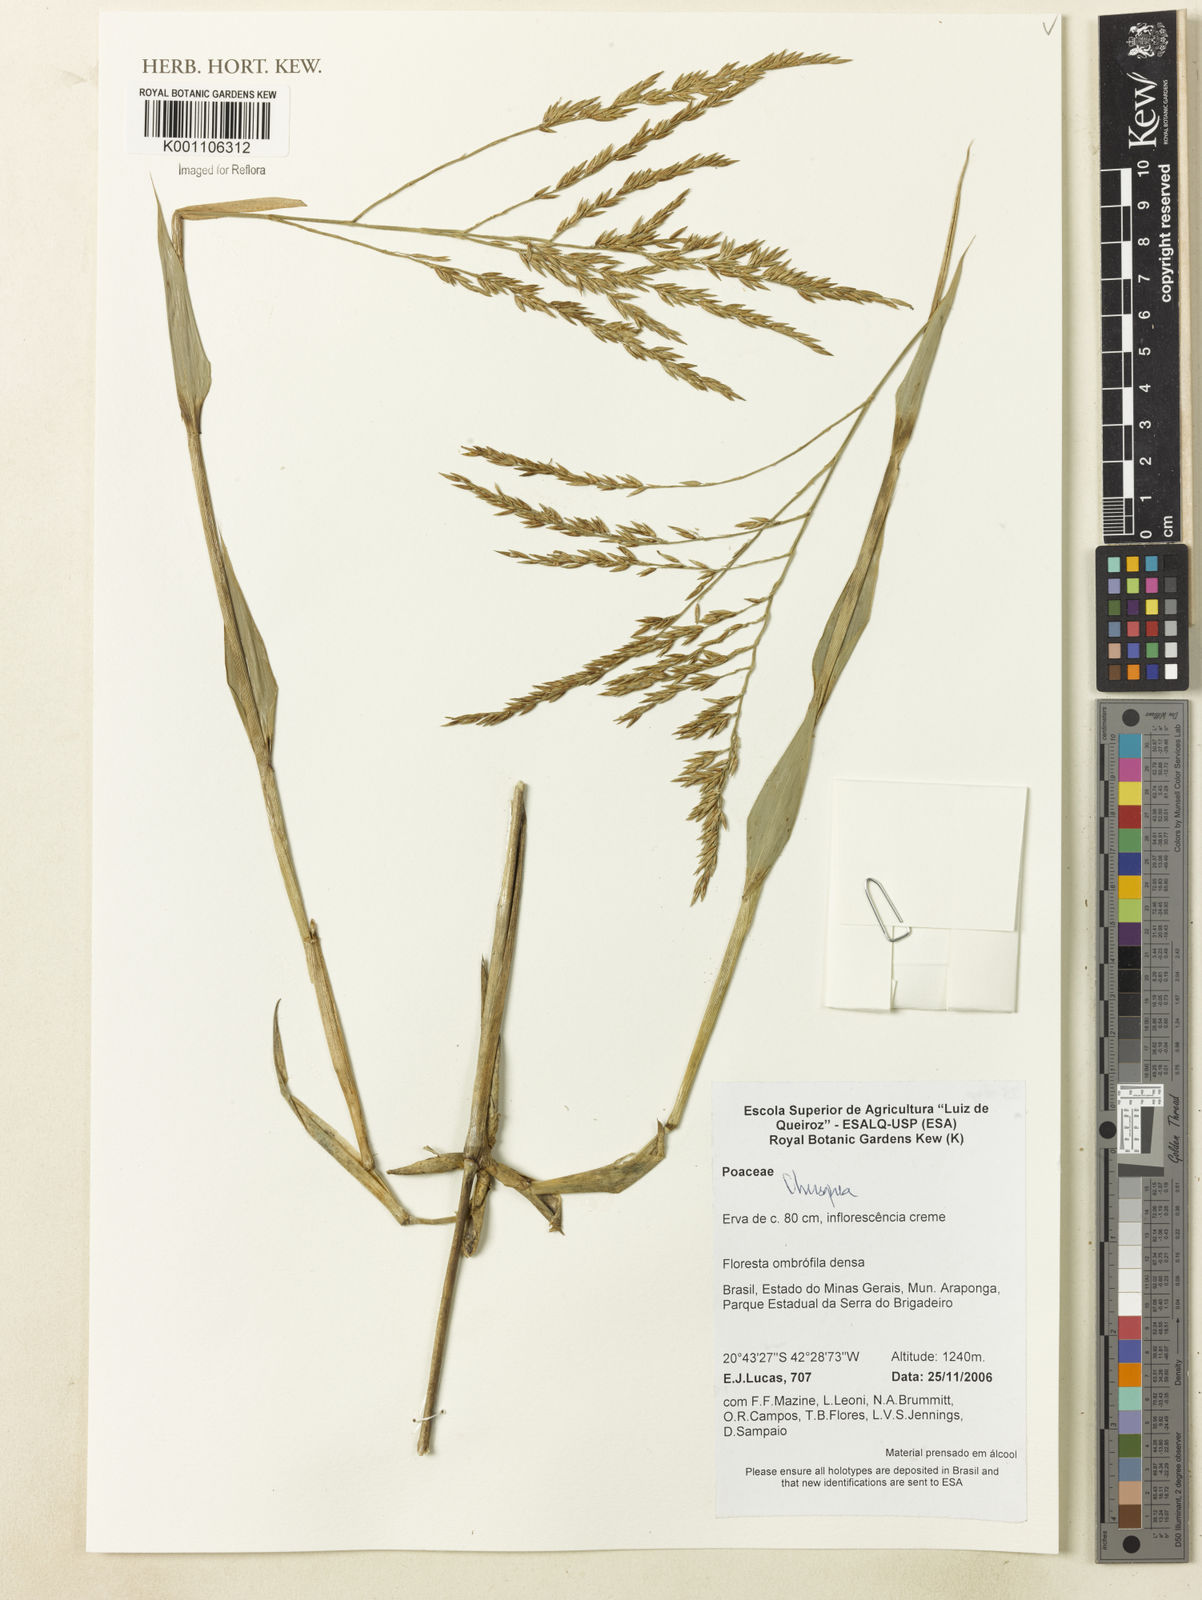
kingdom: Plantae
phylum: Tracheophyta
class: Liliopsida
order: Poales
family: Poaceae
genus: Chusquea
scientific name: Chusquea
